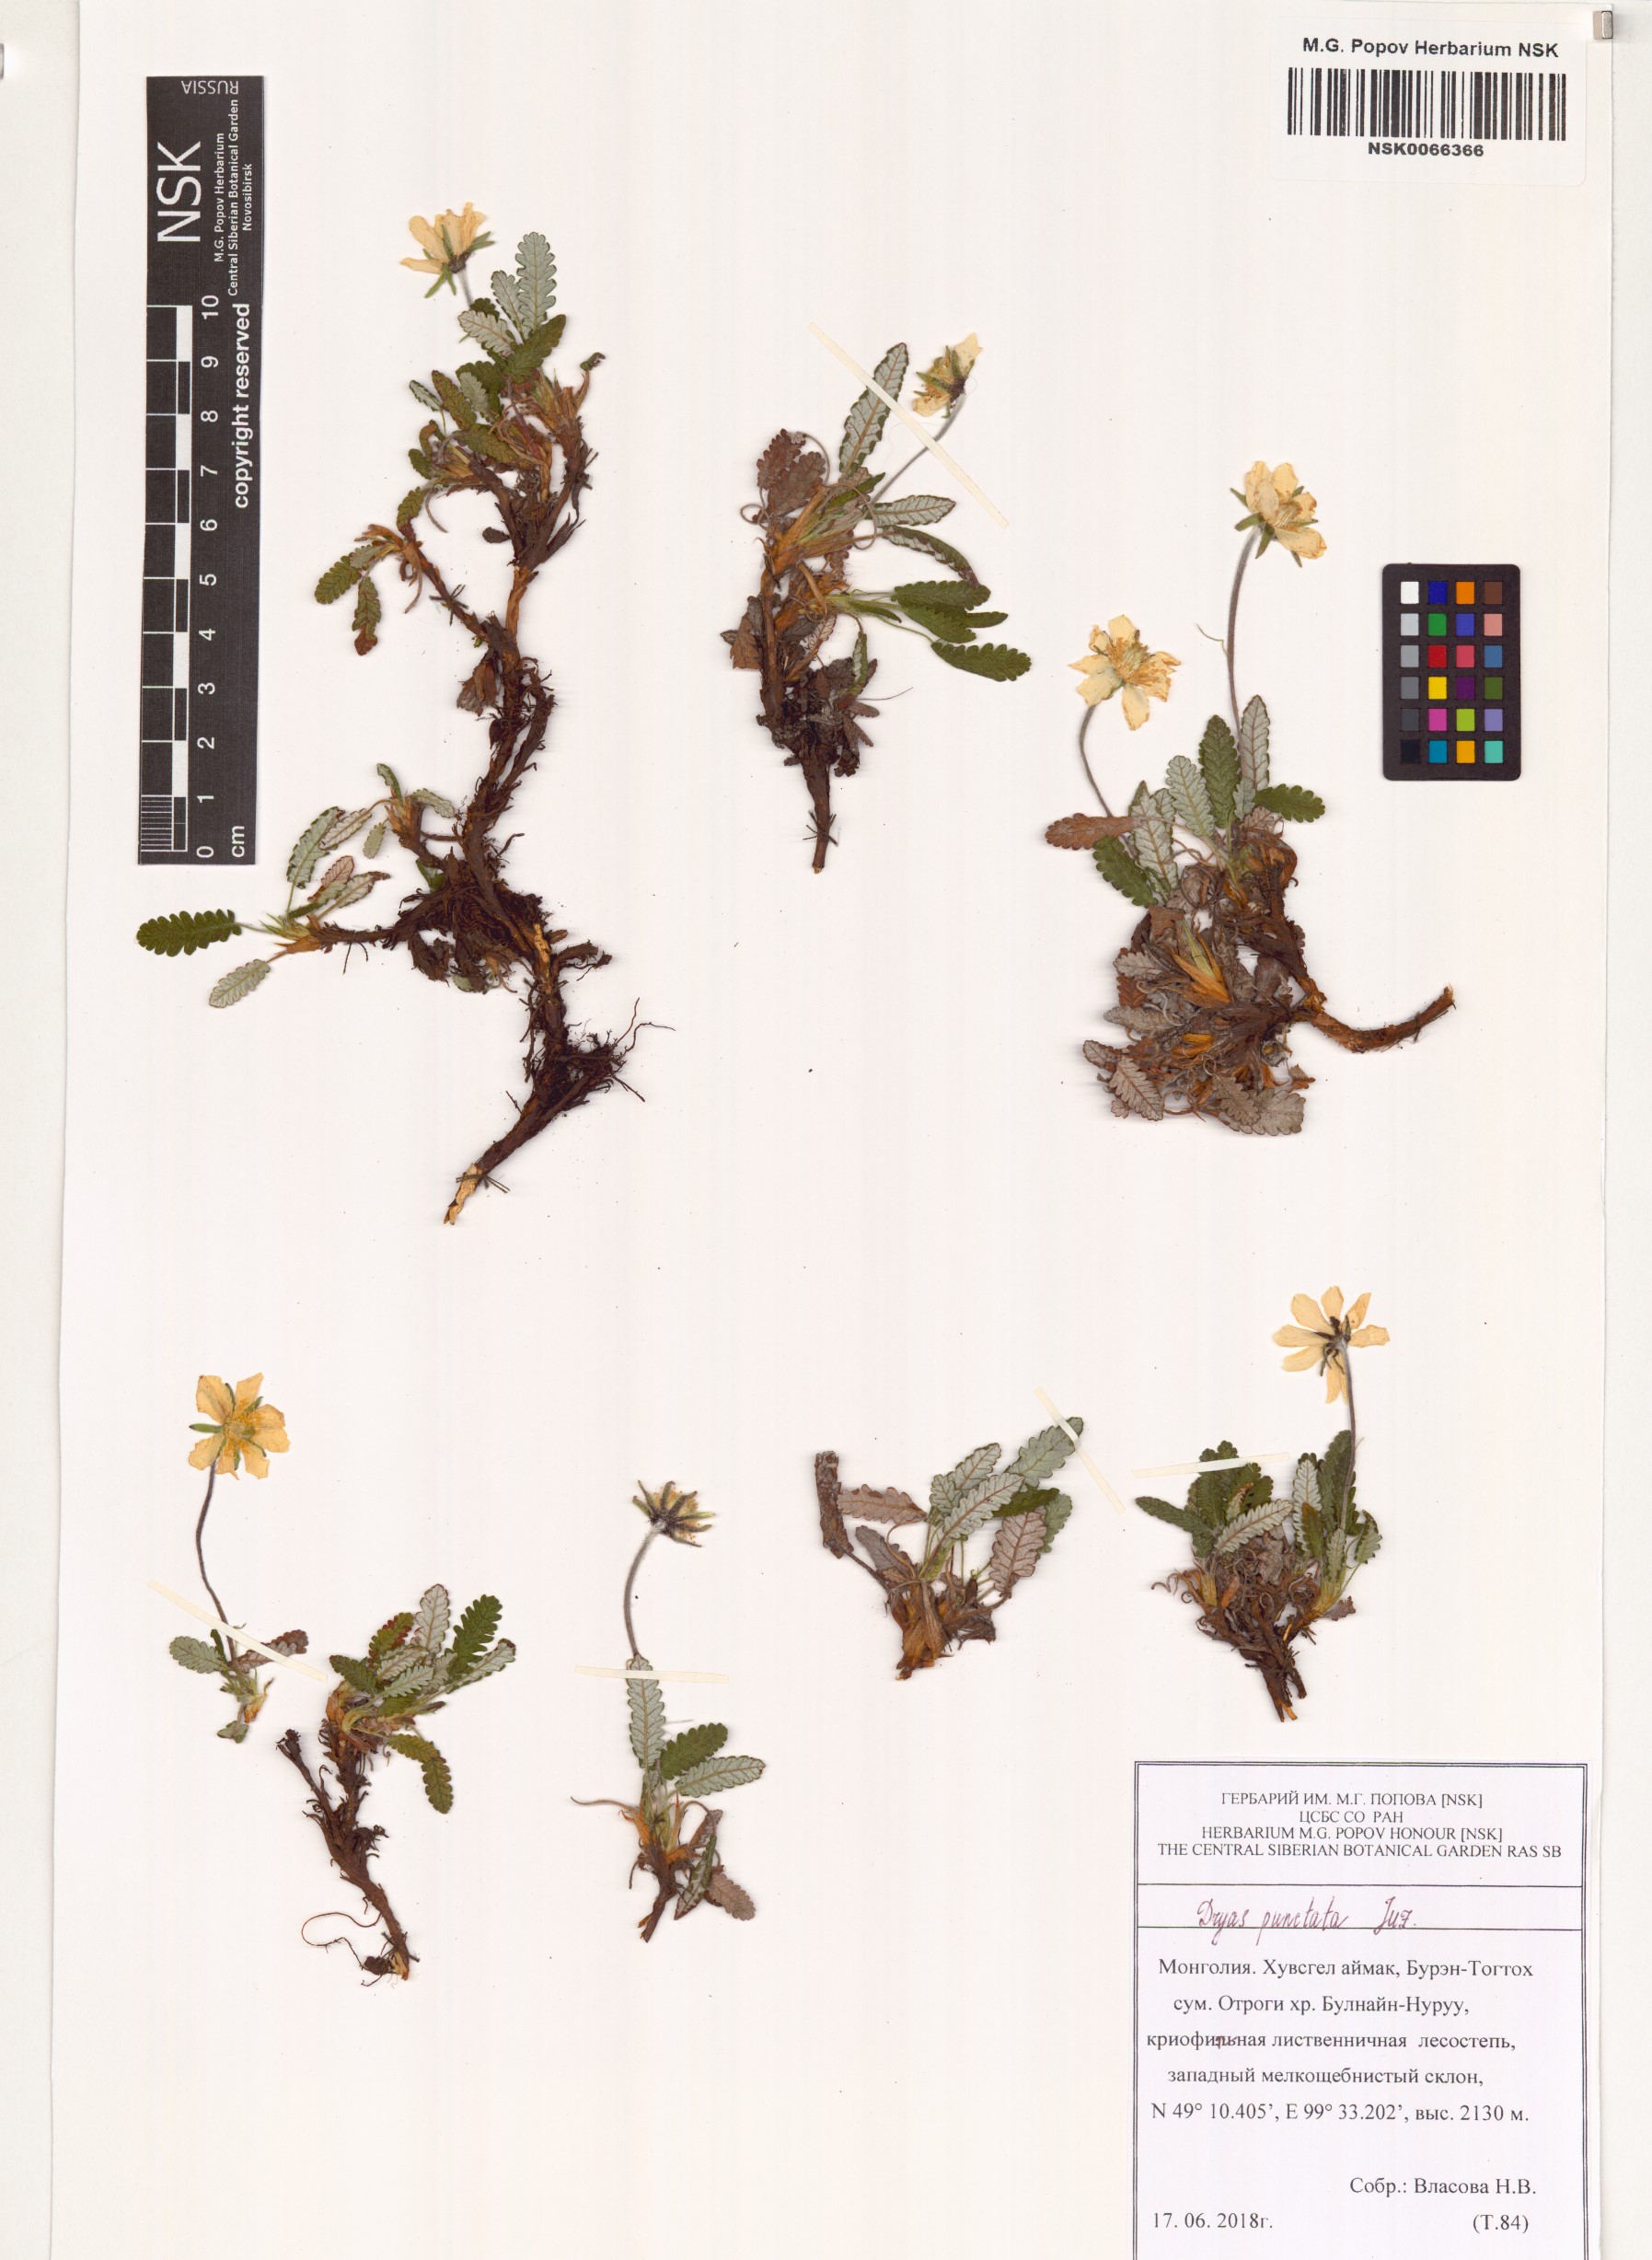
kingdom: Plantae
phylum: Tracheophyta
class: Magnoliopsida
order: Rosales
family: Rosaceae
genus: Dryas
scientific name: Dryas octopetala
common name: Eight-petal mountain-avens
